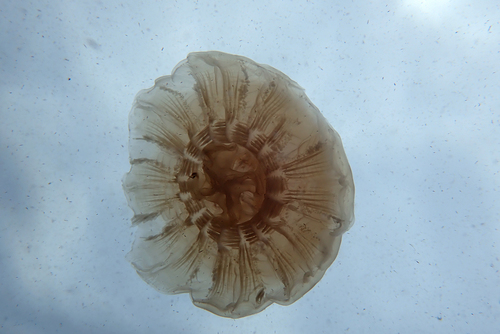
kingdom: Animalia
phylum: Cnidaria
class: Scyphozoa
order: Semaeostomeae
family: Cyaneidae
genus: Cyanea
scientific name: Cyanea nozakii
